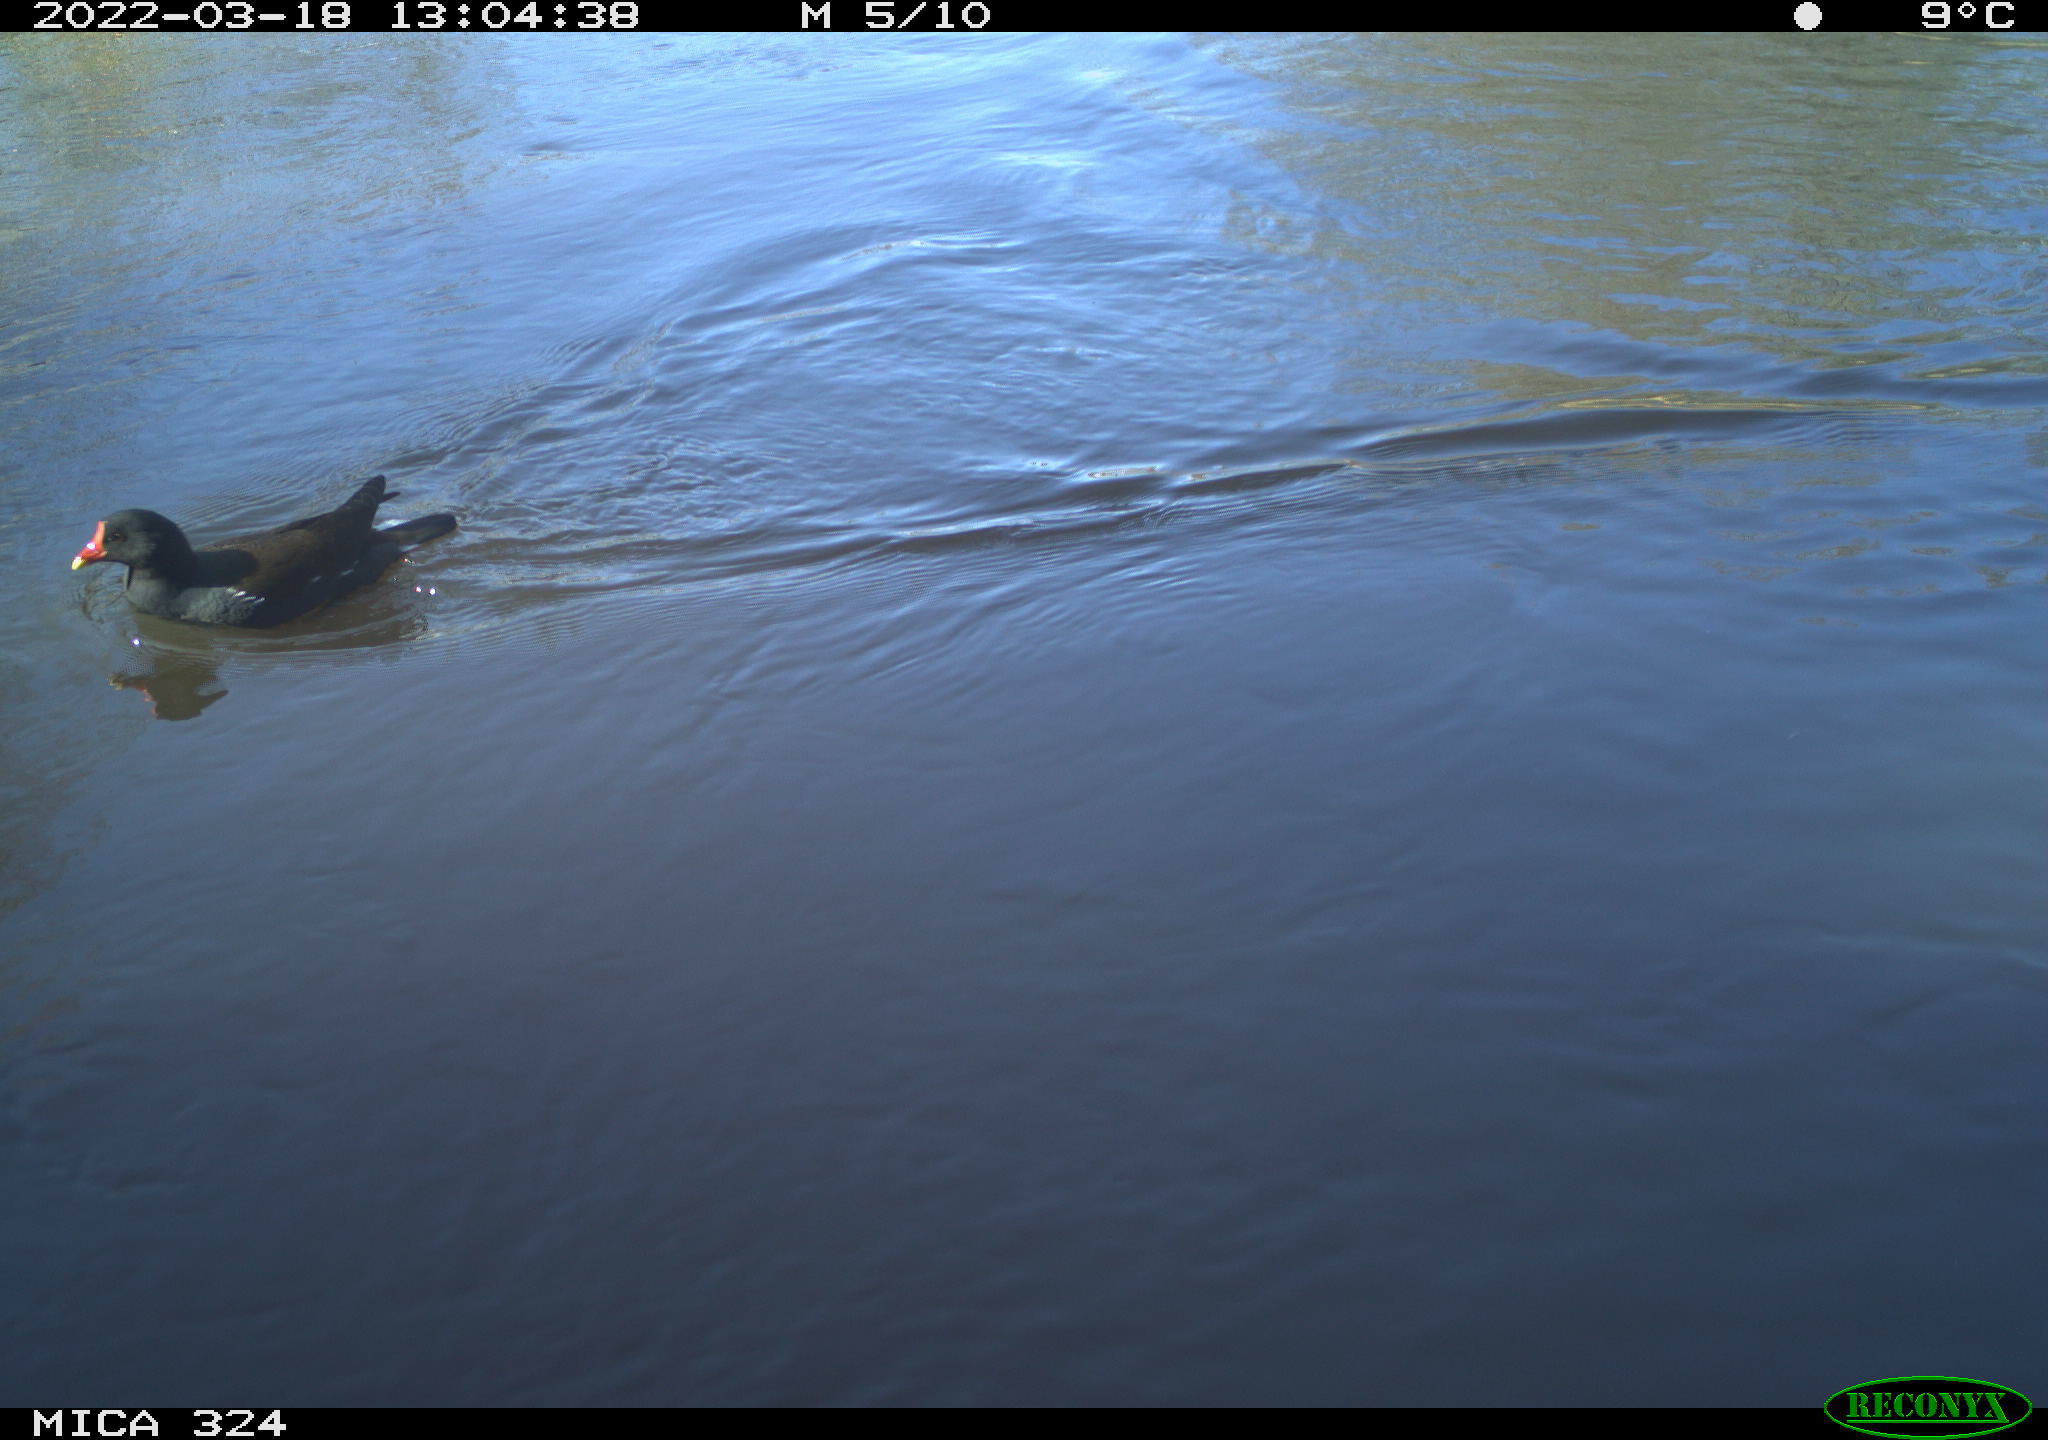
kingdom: Animalia
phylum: Chordata
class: Aves
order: Gruiformes
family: Rallidae
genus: Gallinula
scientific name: Gallinula chloropus
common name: Common moorhen
